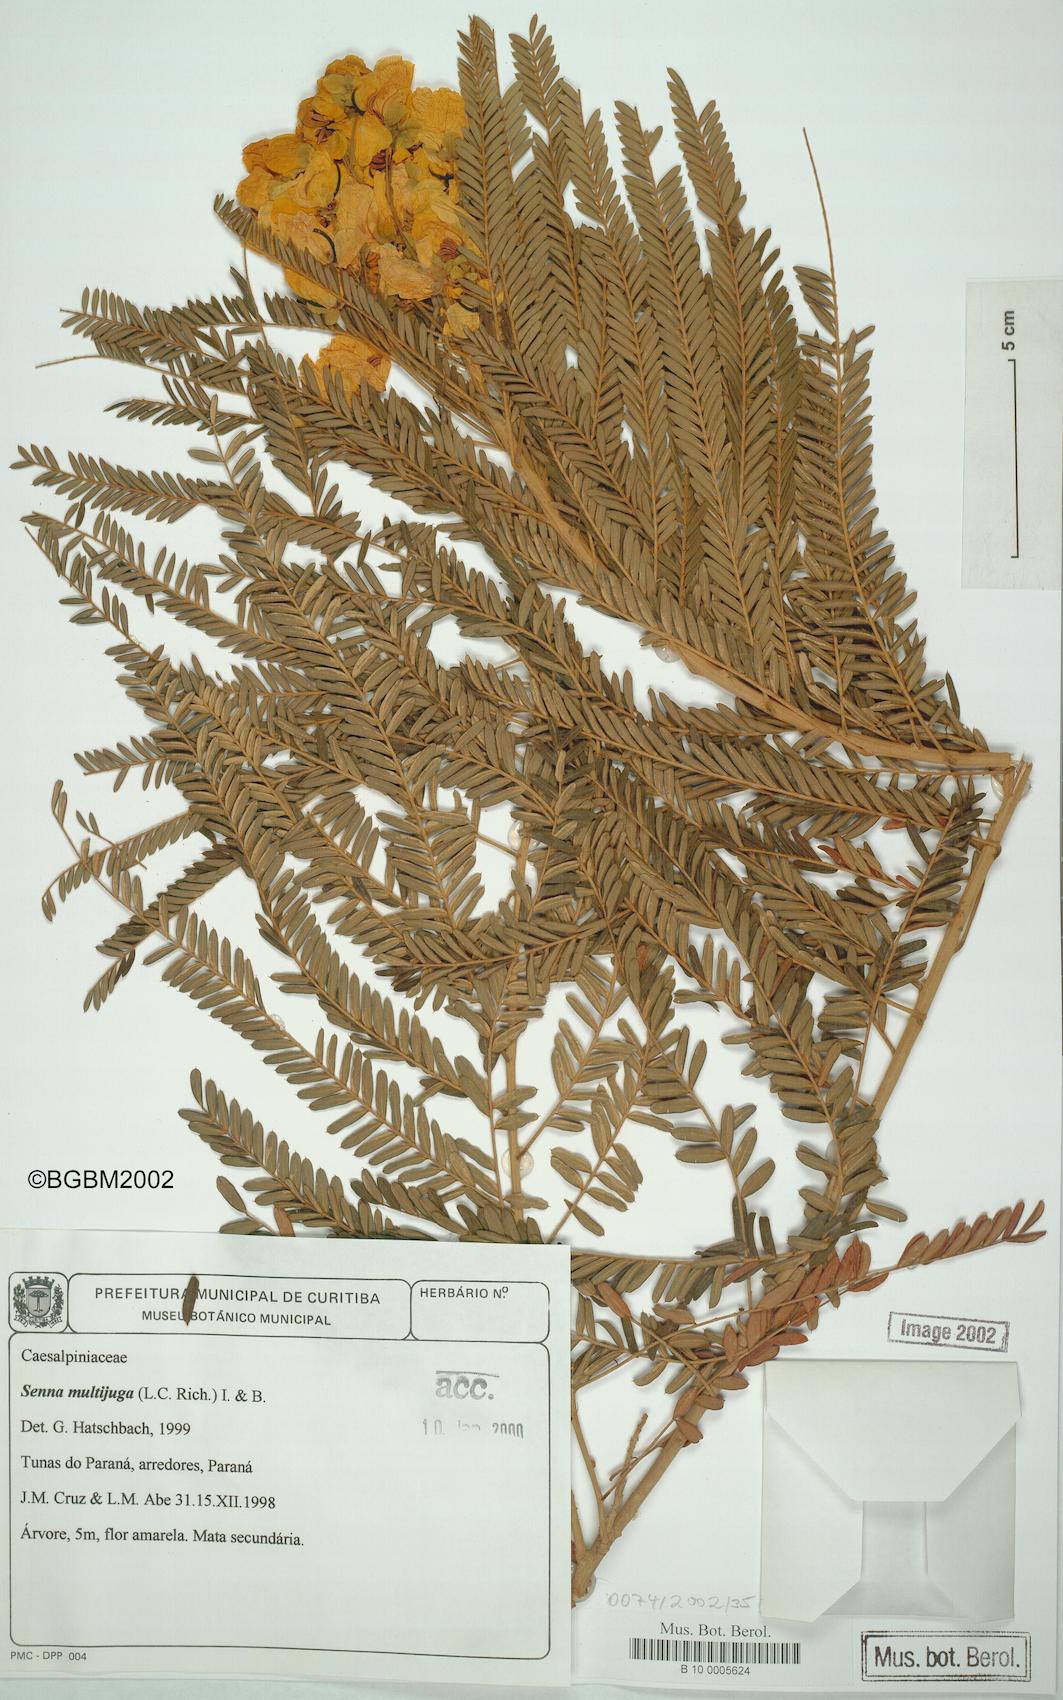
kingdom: Plantae
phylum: Tracheophyta
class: Magnoliopsida
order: Fabales
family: Fabaceae
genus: Senna
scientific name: Senna multijuga
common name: False sicklepod
